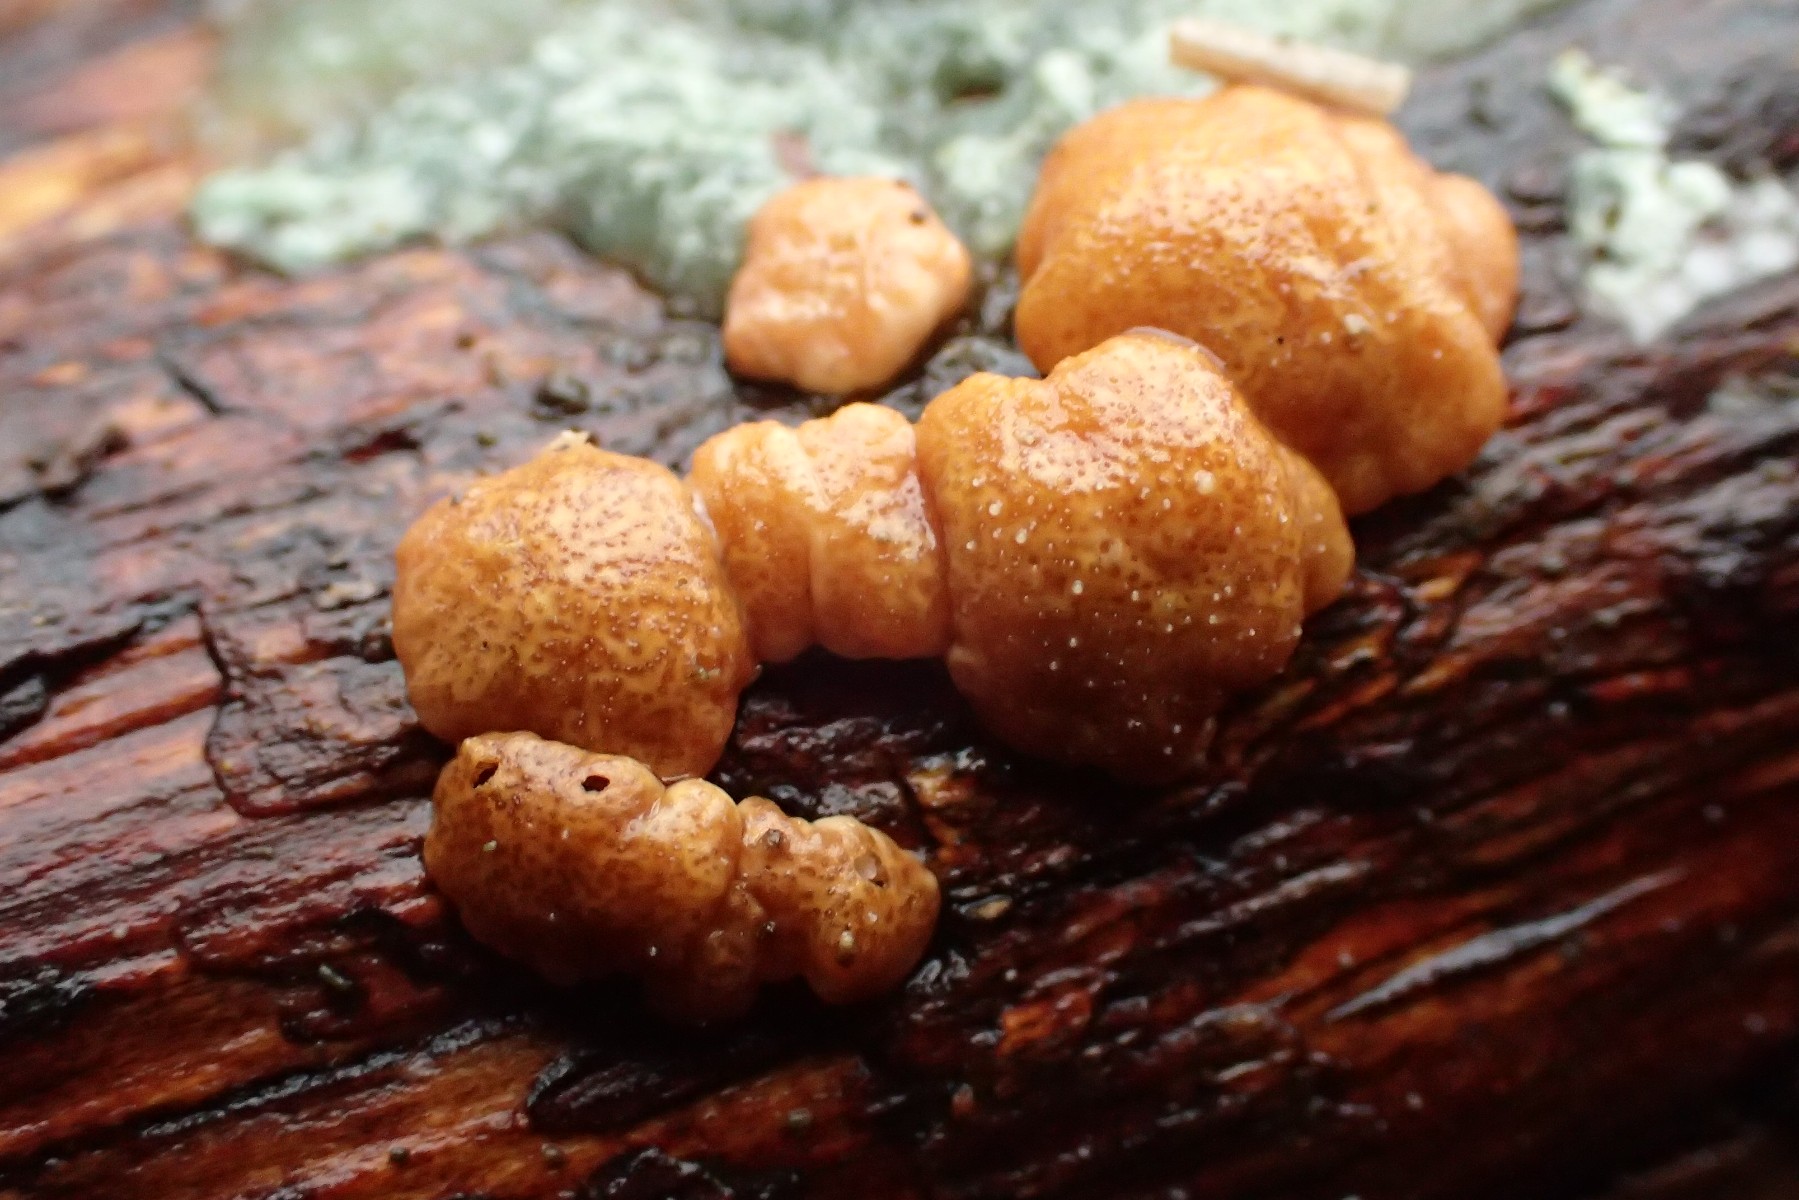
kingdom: Fungi
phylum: Ascomycota
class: Sordariomycetes
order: Hypocreales
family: Hypocreaceae
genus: Trichoderma
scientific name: Trichoderma europaeum
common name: rosabrun kødkerne
